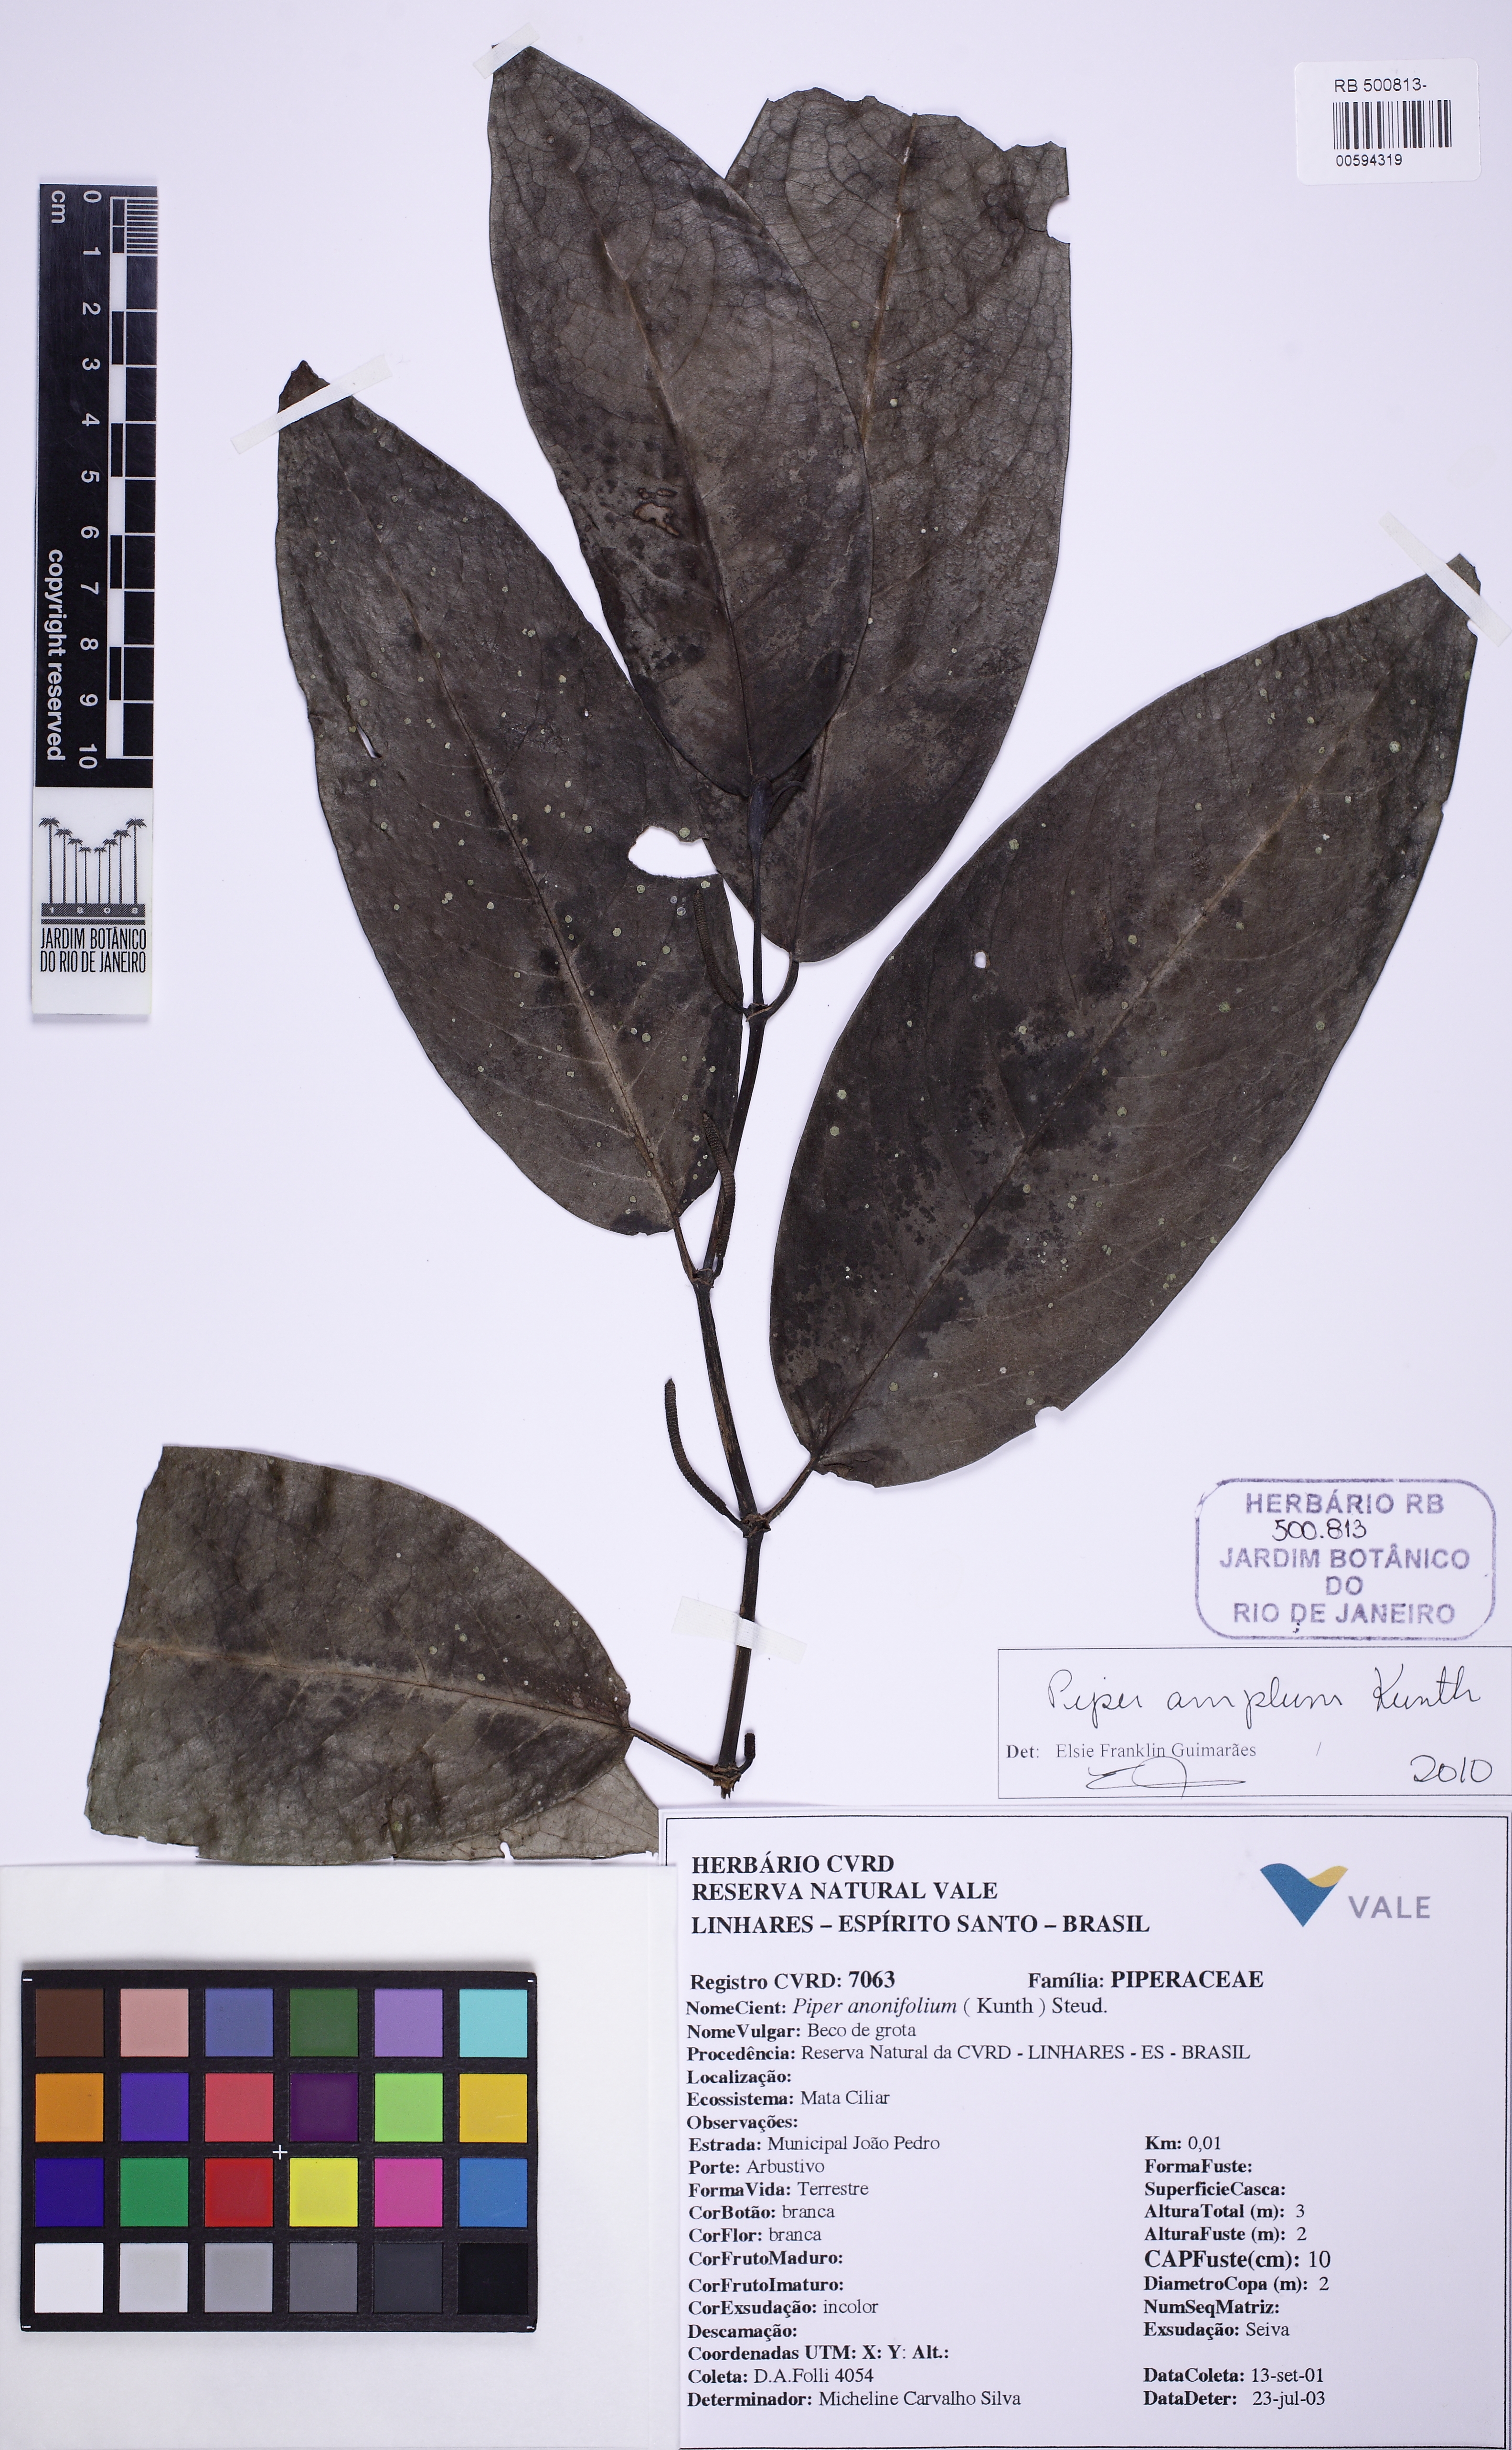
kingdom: Plantae
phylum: Tracheophyta
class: Magnoliopsida
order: Piperales
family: Piperaceae
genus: Piper
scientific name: Piper anonifolium
